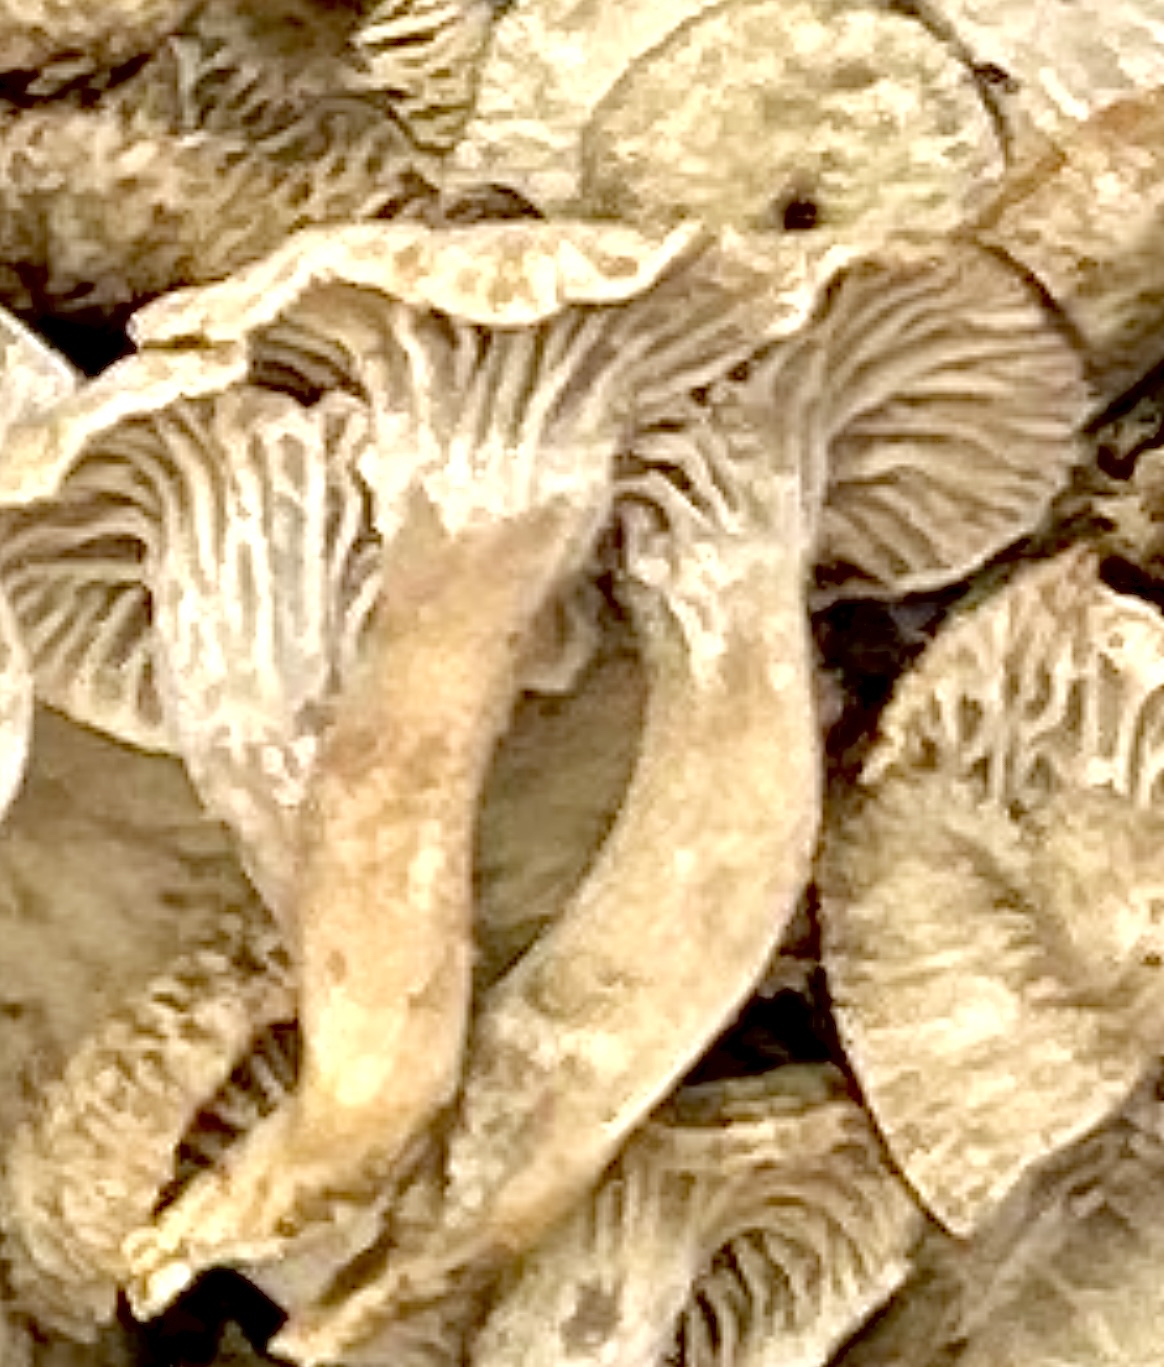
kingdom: Fungi
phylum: Basidiomycota
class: Agaricomycetes
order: Cantharellales
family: Cantharellaceae
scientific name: Cantharellaceae
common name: kantarelfamilien
